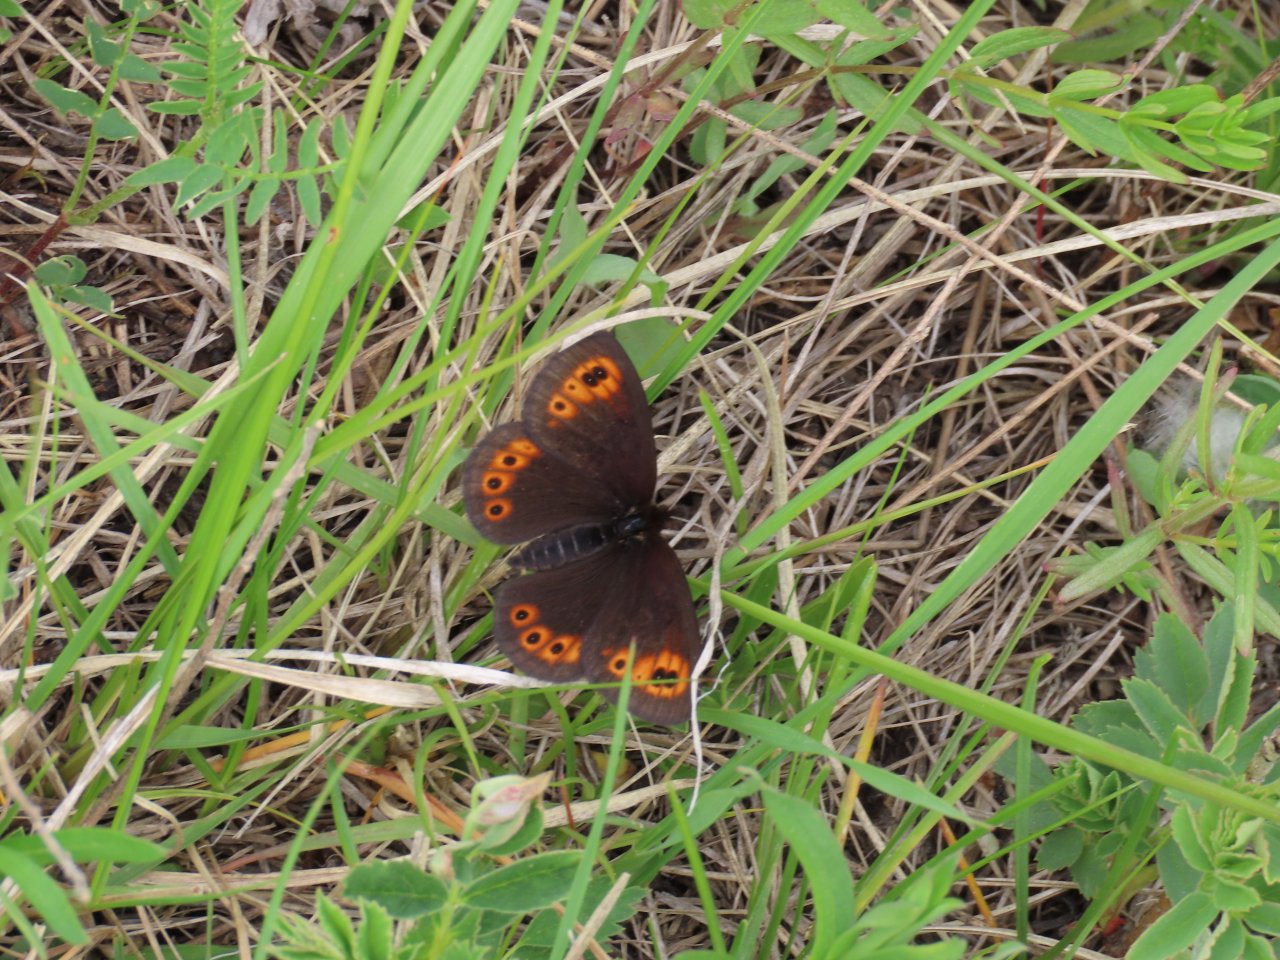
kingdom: Animalia
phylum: Arthropoda
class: Insecta
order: Lepidoptera
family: Nymphalidae
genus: Erebia
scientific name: Erebia epipsodea
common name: Common Alpine
